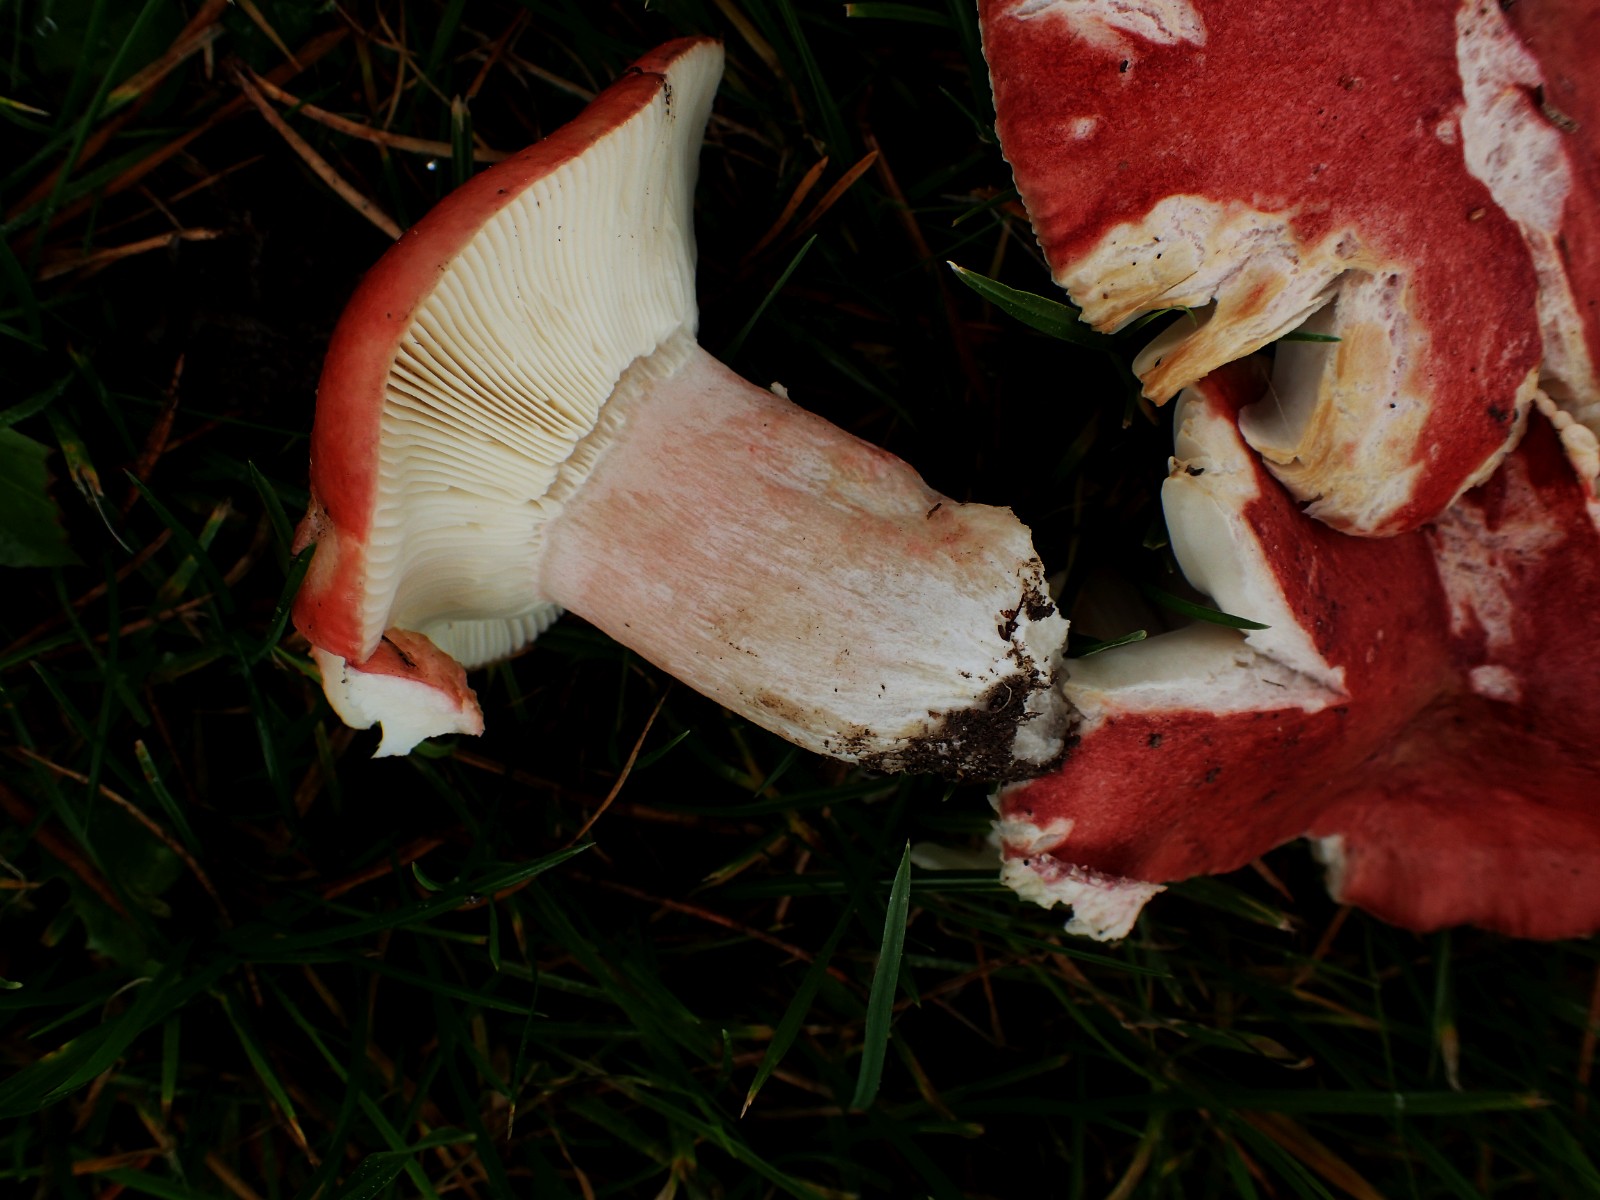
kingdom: Fungi
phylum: Basidiomycota
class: Agaricomycetes
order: Russulales
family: Russulaceae
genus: Russula
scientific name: Russula sanguinea
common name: blodrød skørhat
